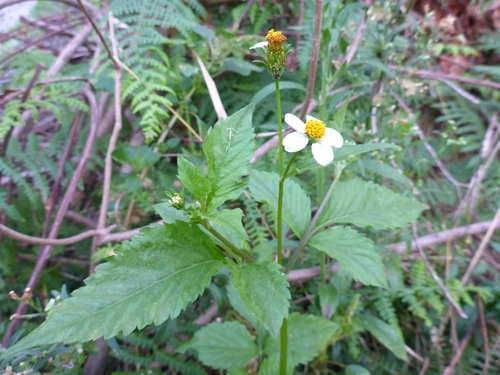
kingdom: Plantae
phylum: Tracheophyta
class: Magnoliopsida
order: Asterales
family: Asteraceae
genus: Bidens
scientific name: Bidens pilosa
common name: Black-jack
